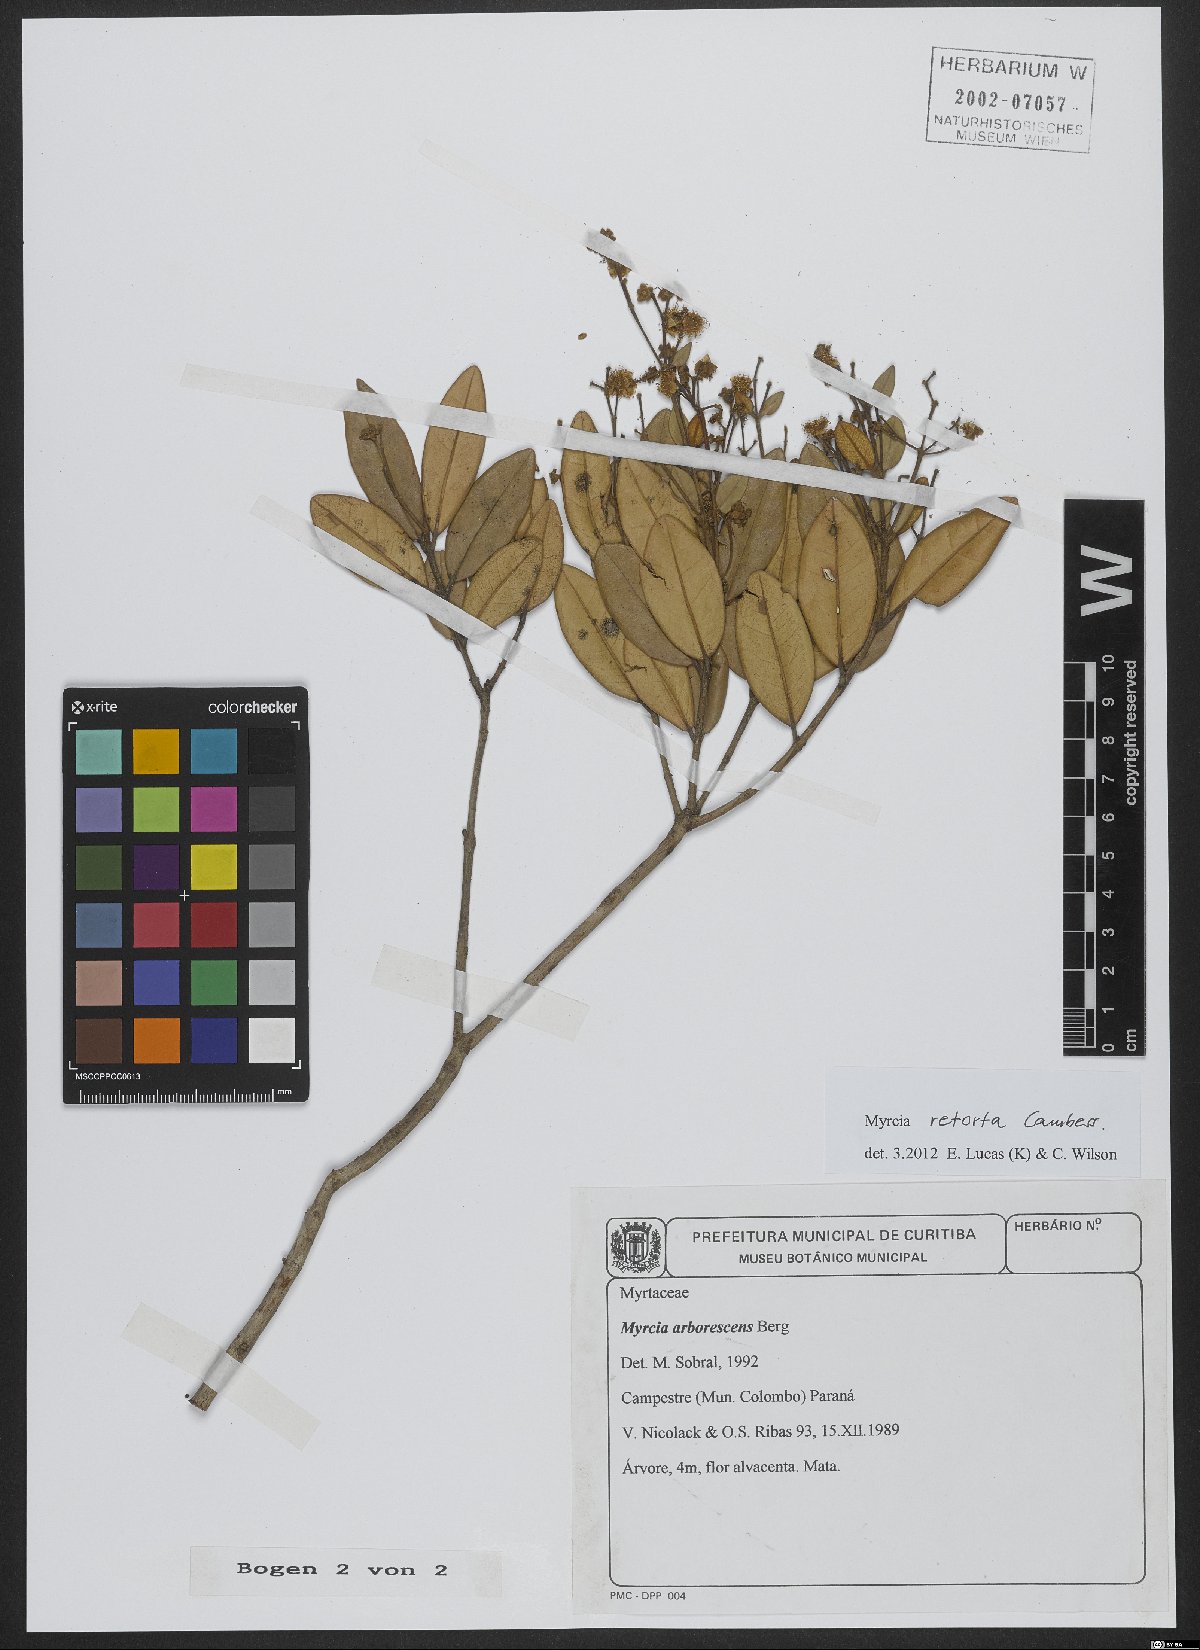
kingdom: Plantae
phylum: Tracheophyta
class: Magnoliopsida
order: Myrtales
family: Myrtaceae
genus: Myrcia
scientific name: Myrcia retorta
